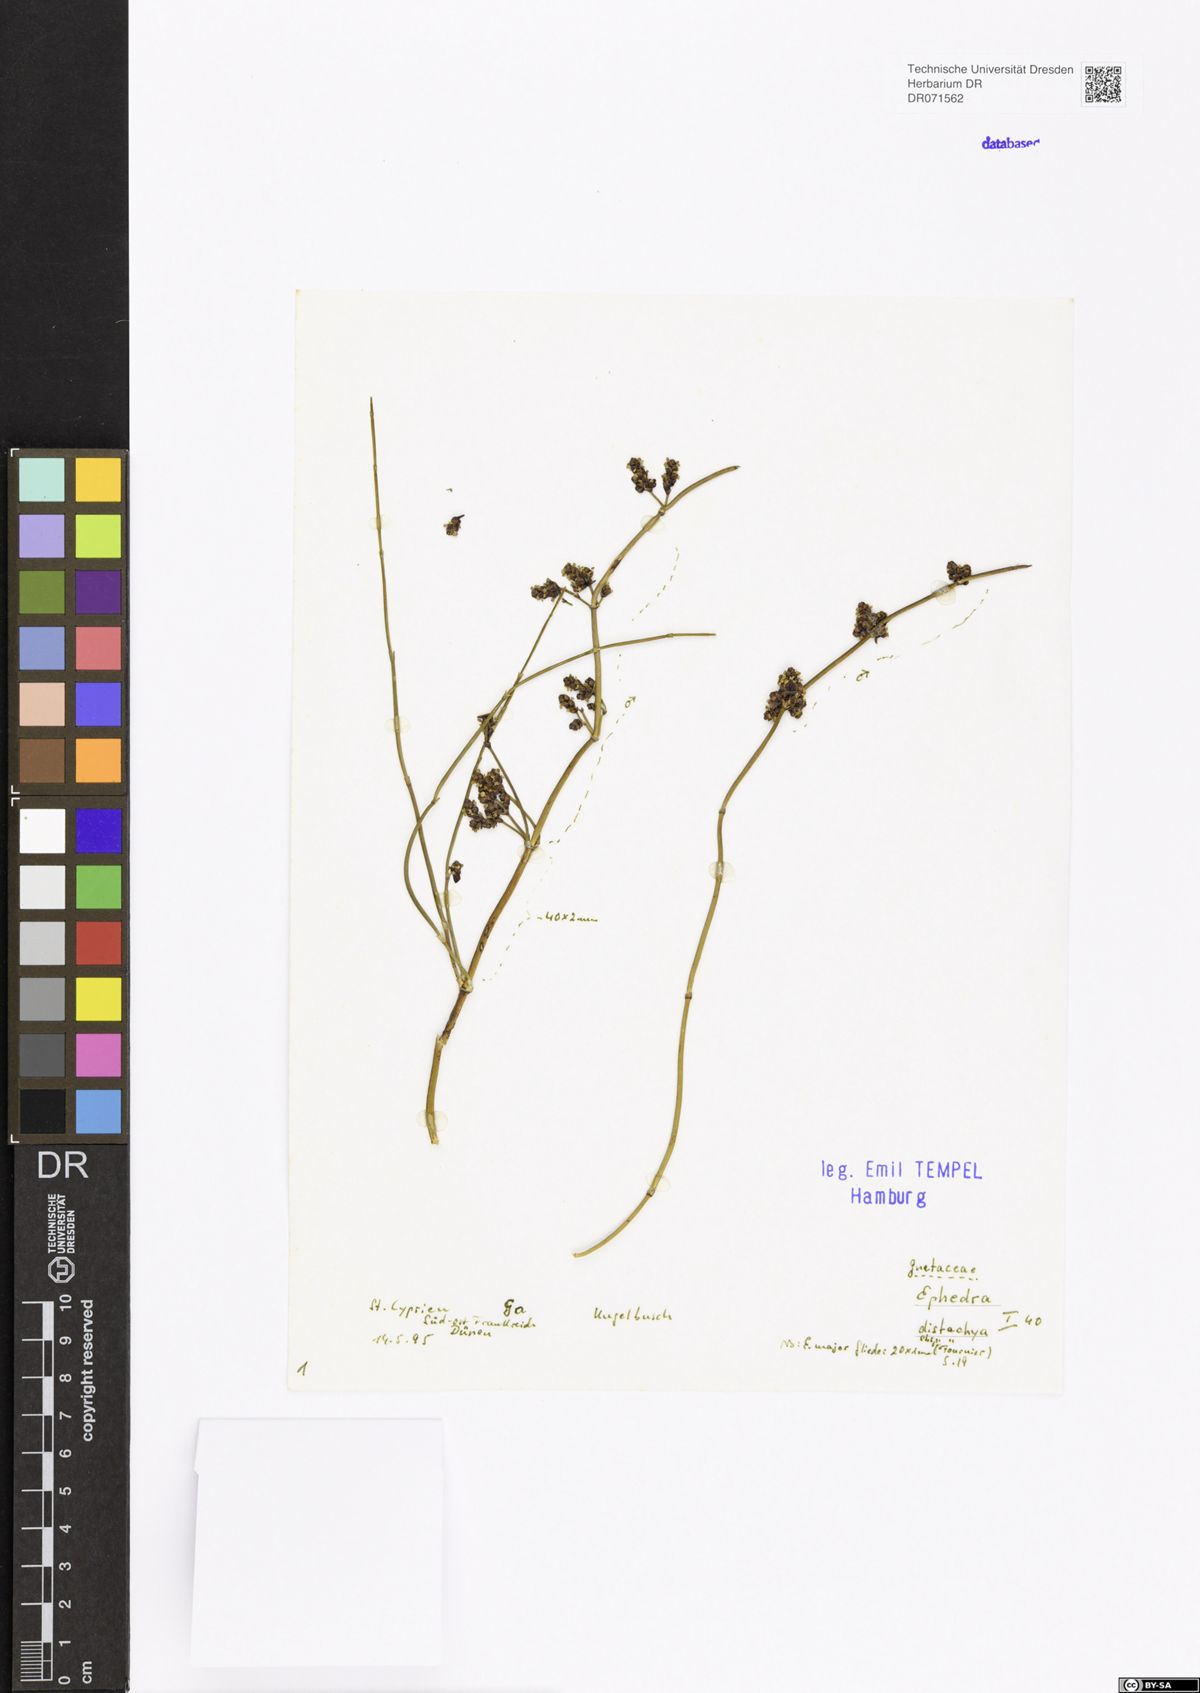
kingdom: Plantae
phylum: Tracheophyta
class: Gnetopsida
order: Ephedrales
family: Ephedraceae
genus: Ephedra
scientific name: Ephedra distachya
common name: Sea grape
